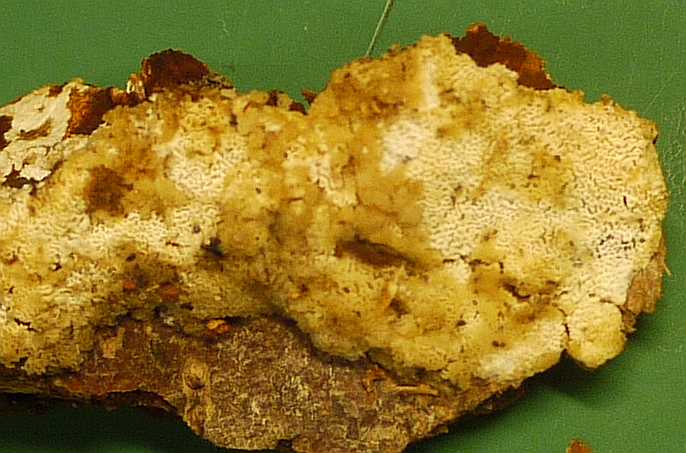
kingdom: Fungi
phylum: Basidiomycota
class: Agaricomycetes
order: Hymenochaetales
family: Schizoporaceae
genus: Xylodon
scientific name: Xylodon subtropicus
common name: labyrint-tandsvamp
